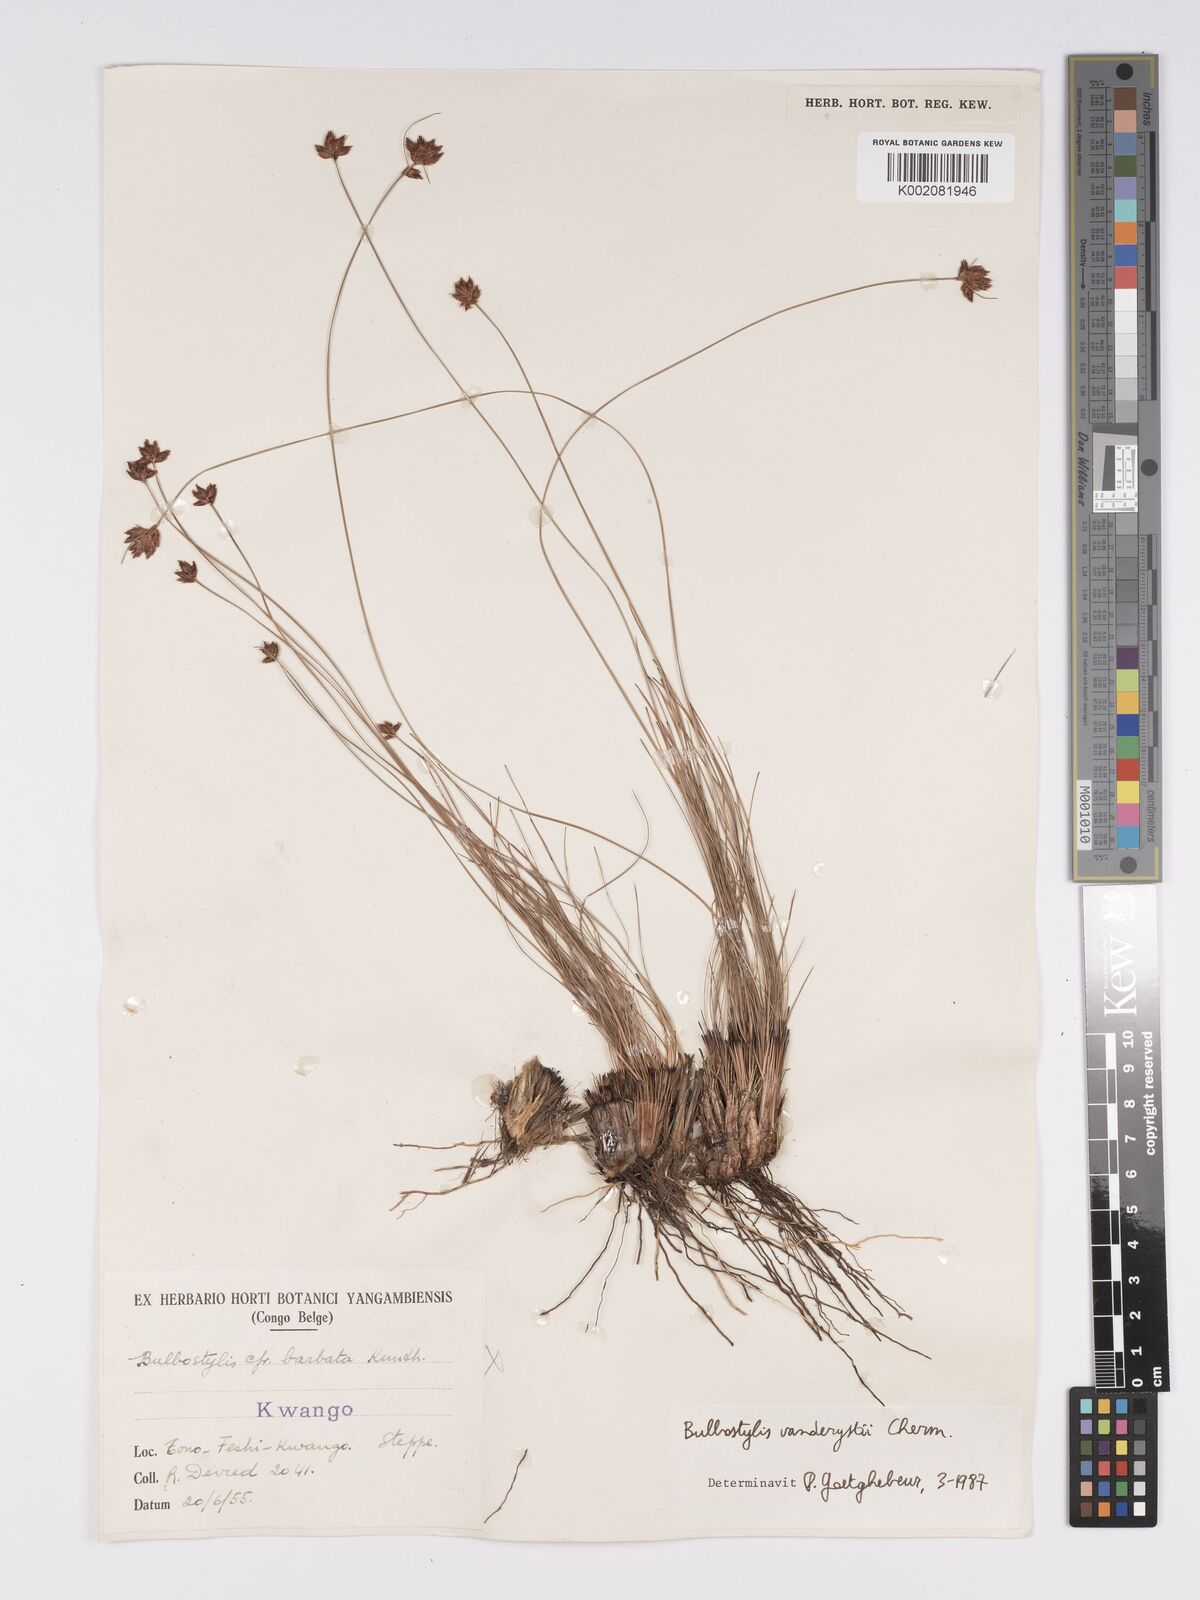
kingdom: Plantae
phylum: Tracheophyta
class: Liliopsida
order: Poales
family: Cyperaceae
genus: Bulbostylis
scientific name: Bulbostylis vanderystii
